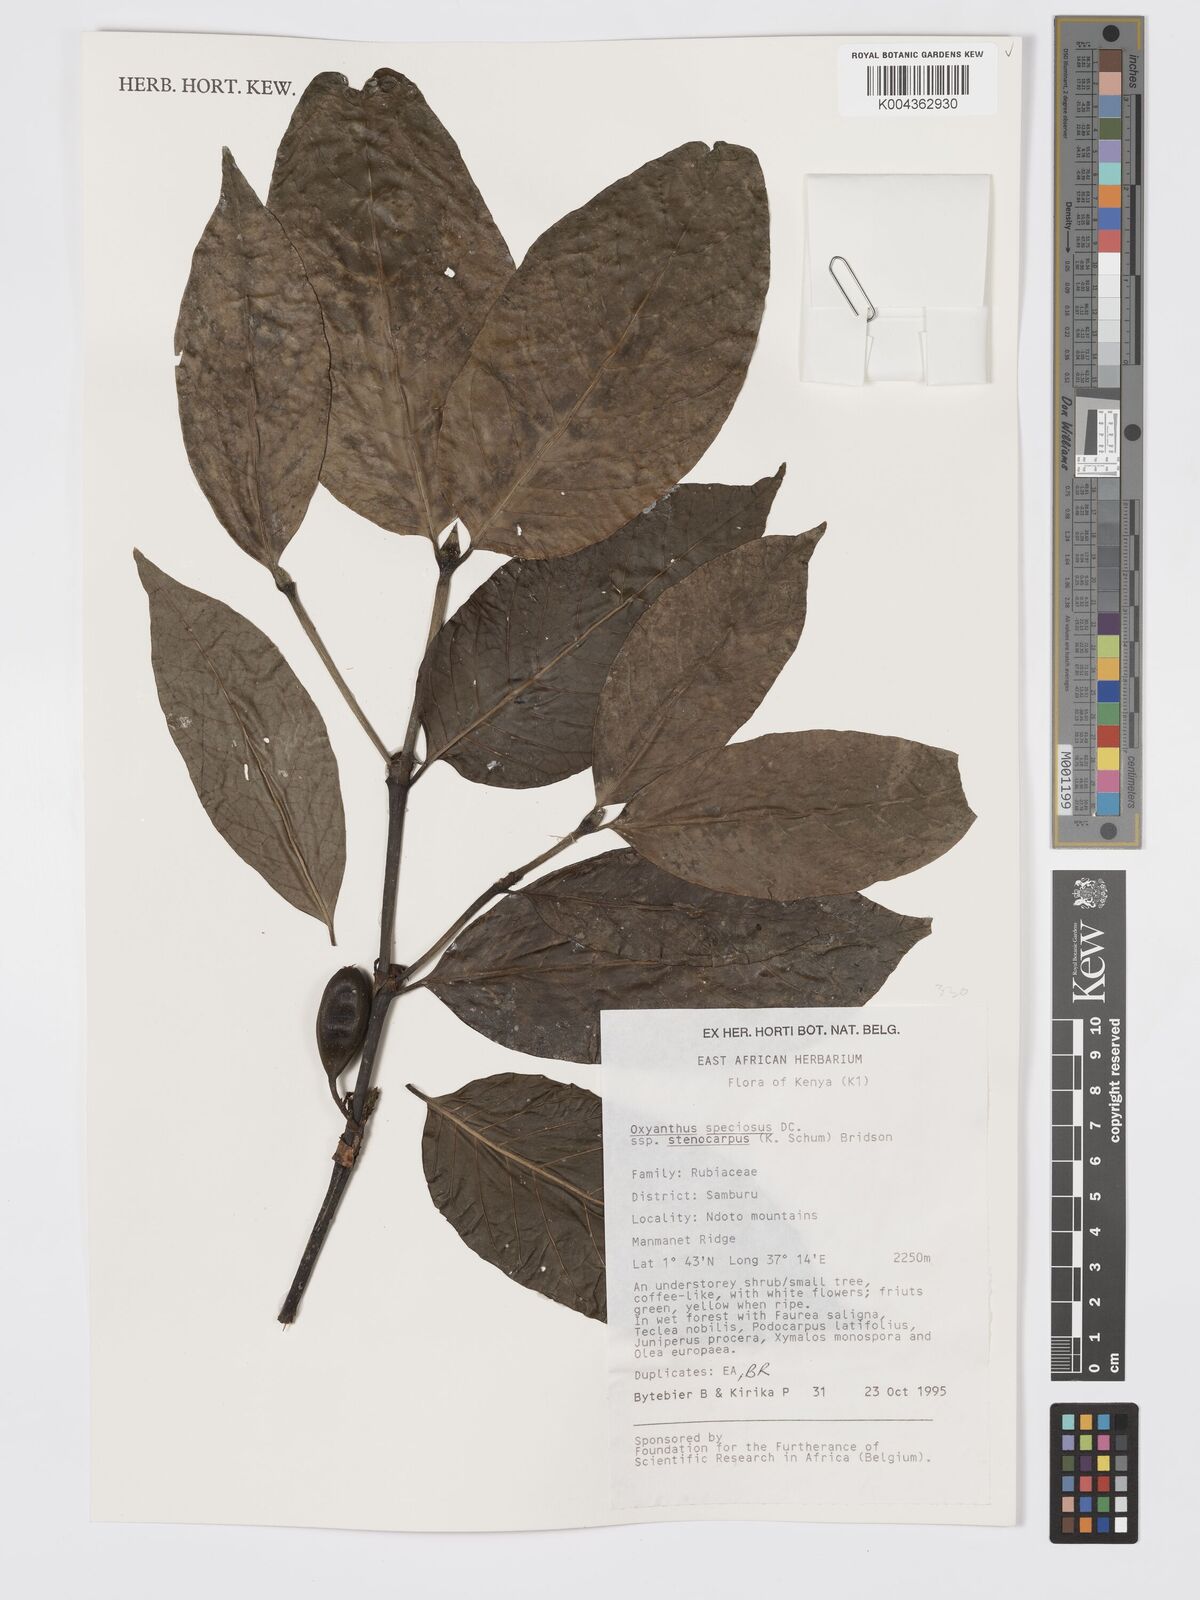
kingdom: Plantae
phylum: Tracheophyta
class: Magnoliopsida
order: Gentianales
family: Rubiaceae
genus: Oxyanthus
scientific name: Oxyanthus speciosus
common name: Whipstick loquat
